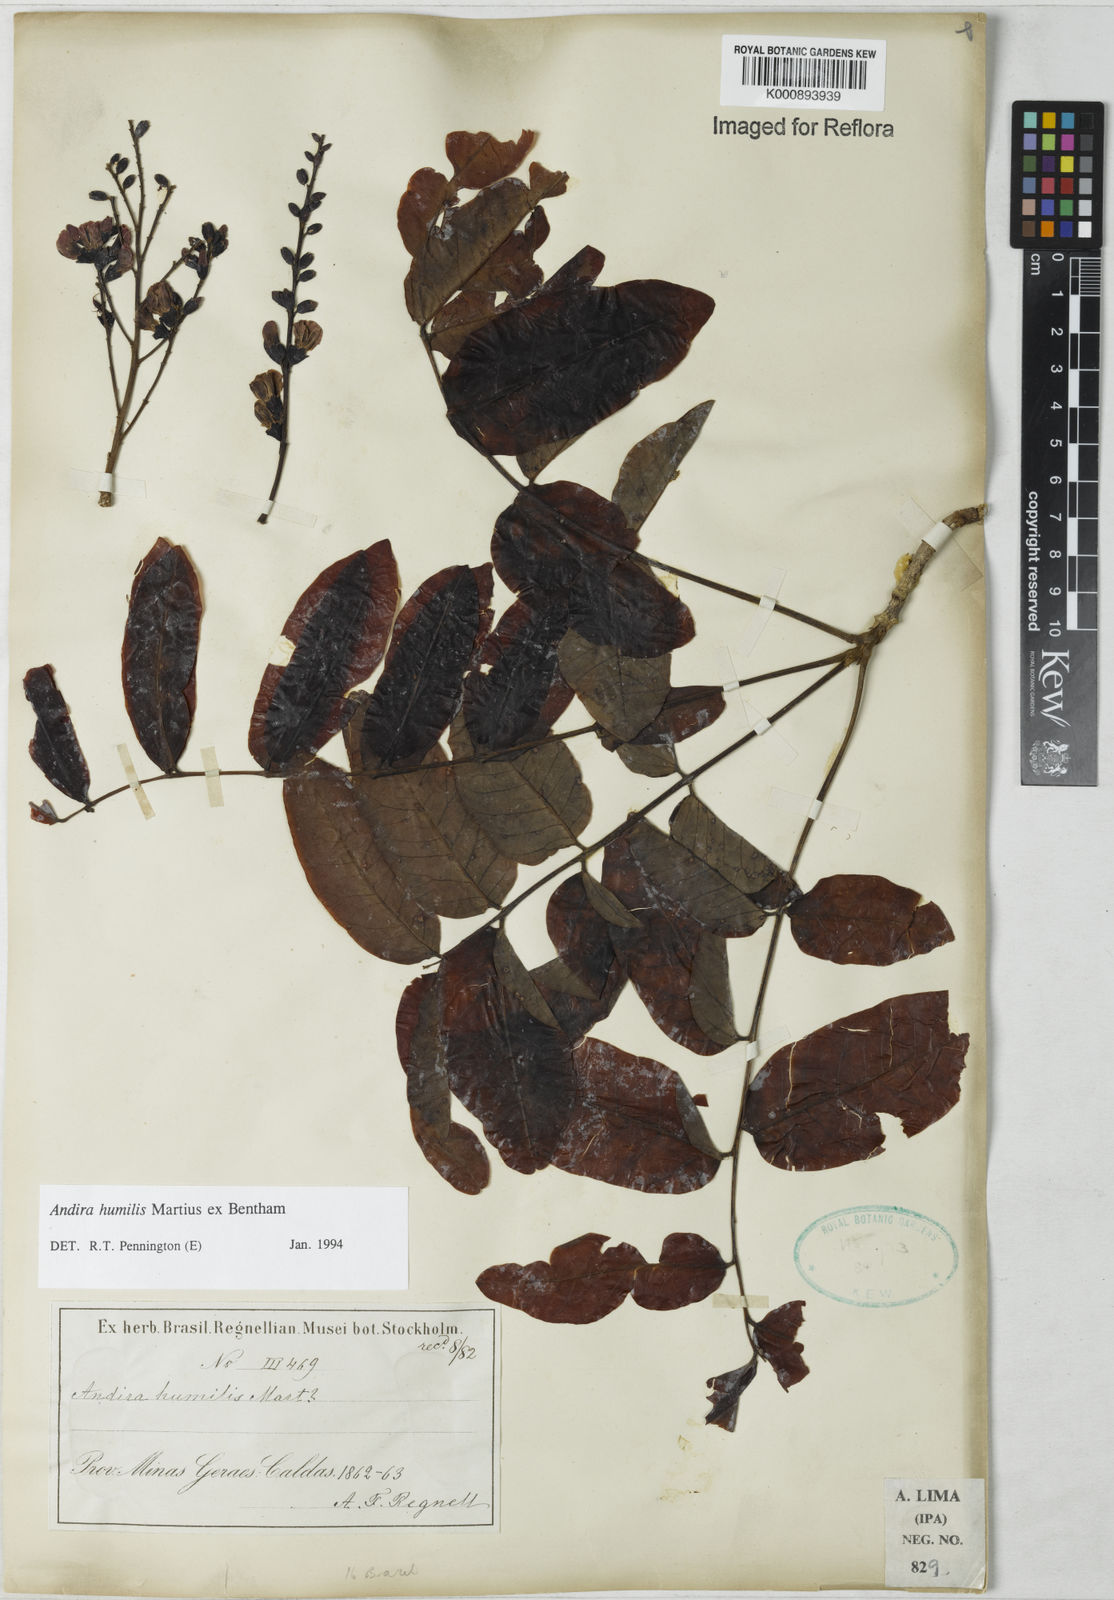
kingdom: Plantae
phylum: Tracheophyta
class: Magnoliopsida
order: Fabales
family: Fabaceae
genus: Andira
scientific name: Andira humilis
